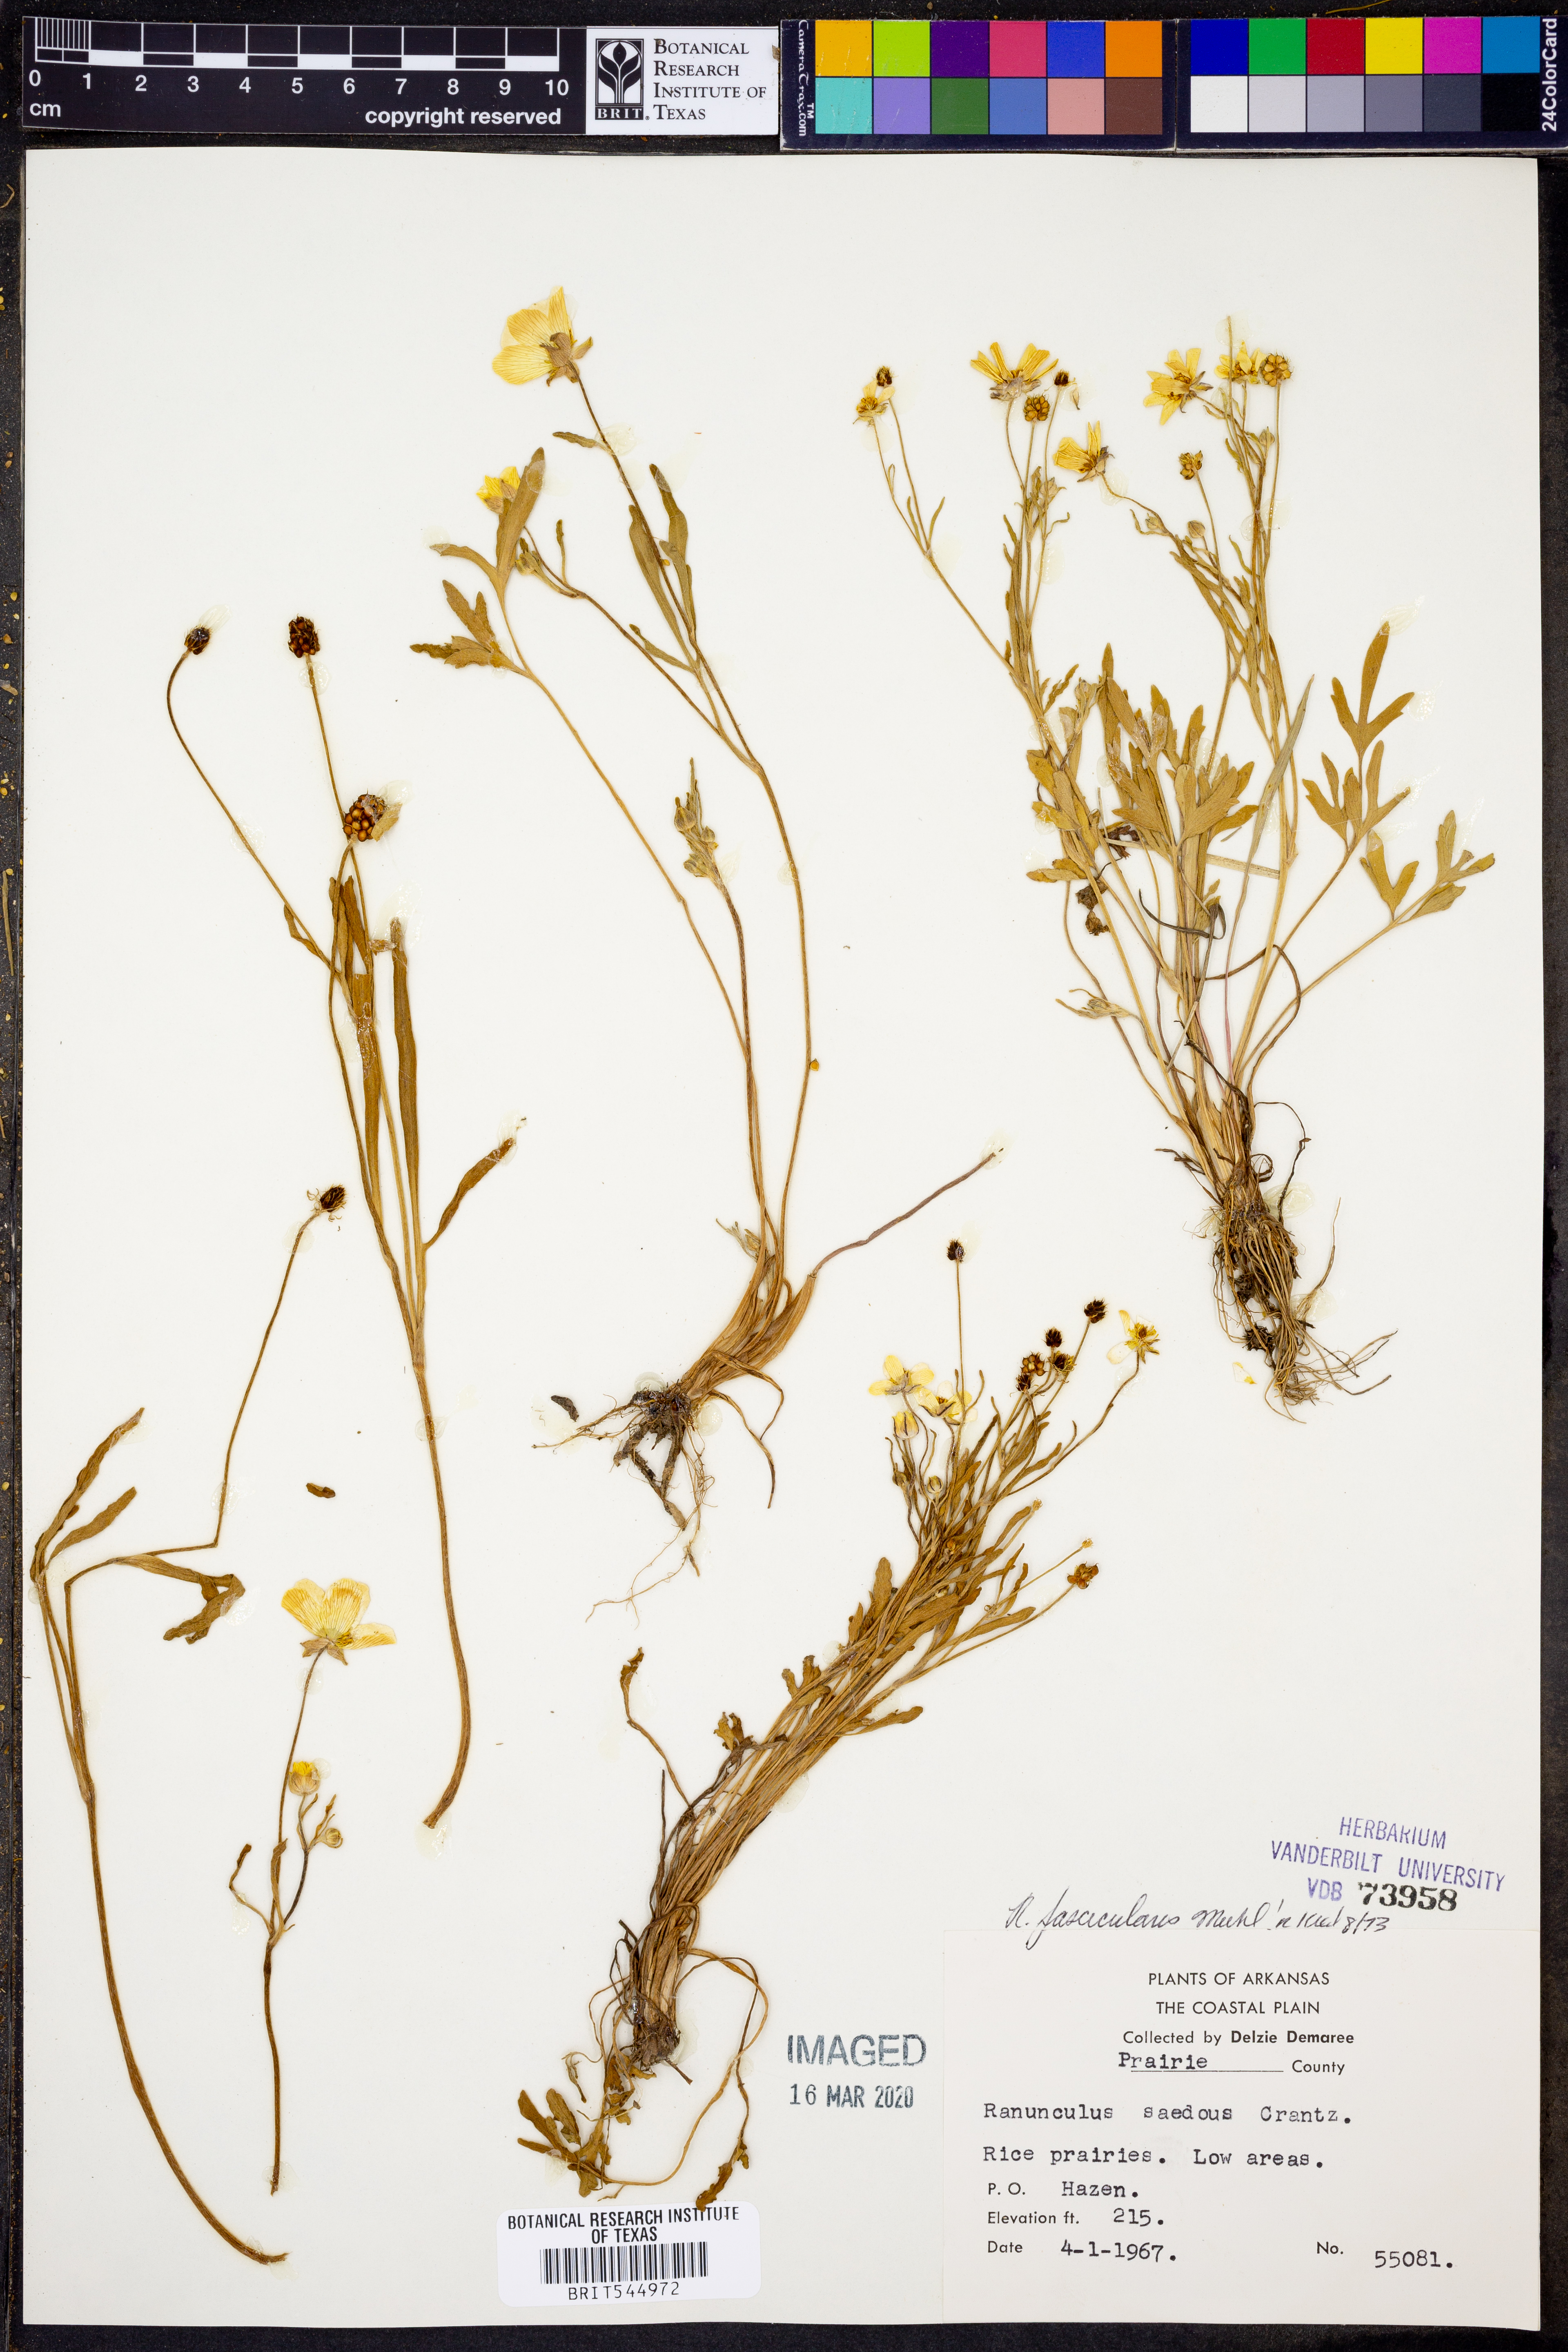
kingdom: Plantae
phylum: Tracheophyta
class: Magnoliopsida
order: Ranunculales
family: Ranunculaceae
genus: Ranunculus
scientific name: Ranunculus fascicularis
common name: Early buttercup
